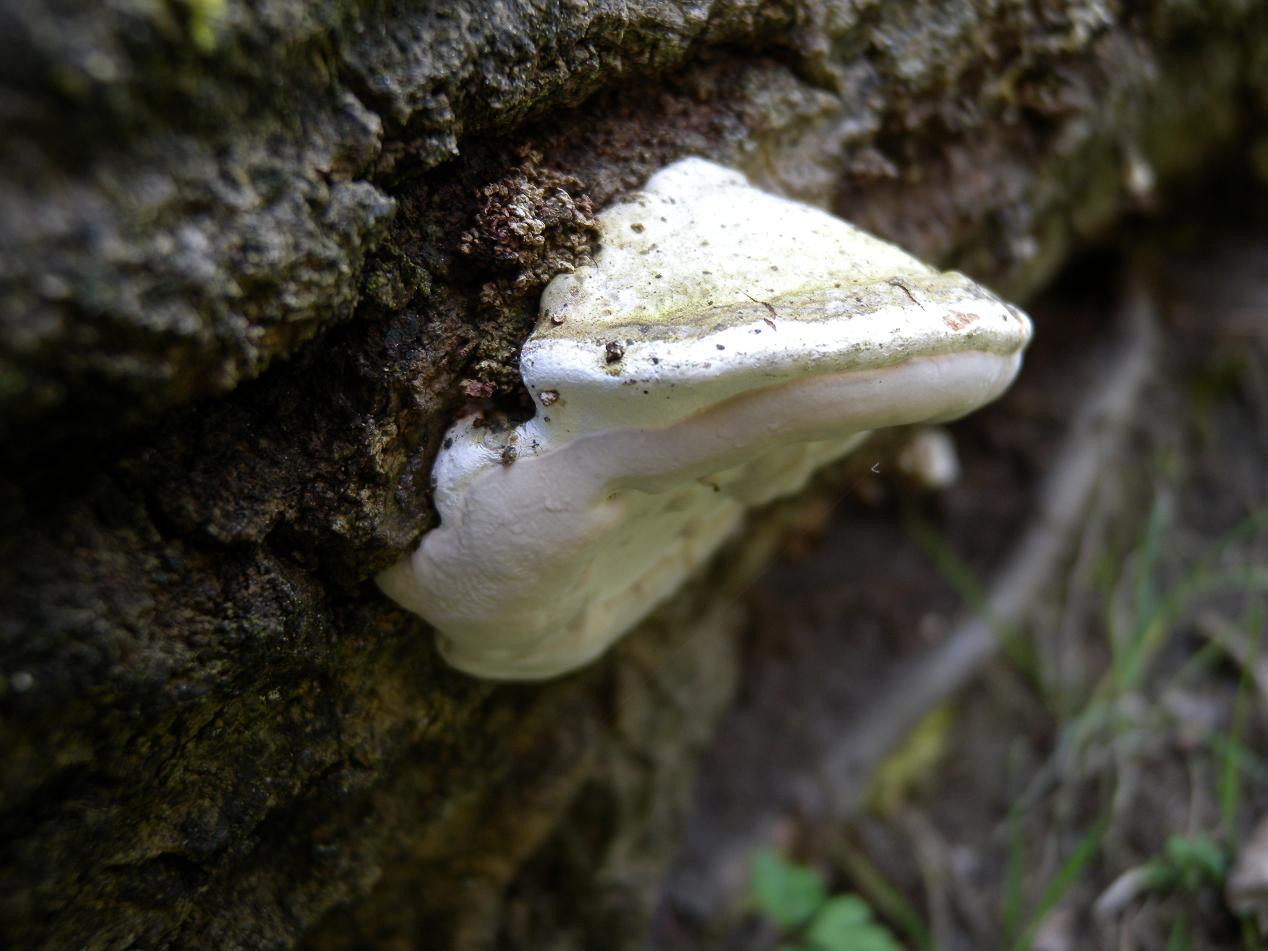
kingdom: Fungi
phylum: Basidiomycota
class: Agaricomycetes
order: Polyporales
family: Polyporaceae
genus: Ganoderma
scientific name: Ganoderma applanatum
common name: flad lakporesvamp
